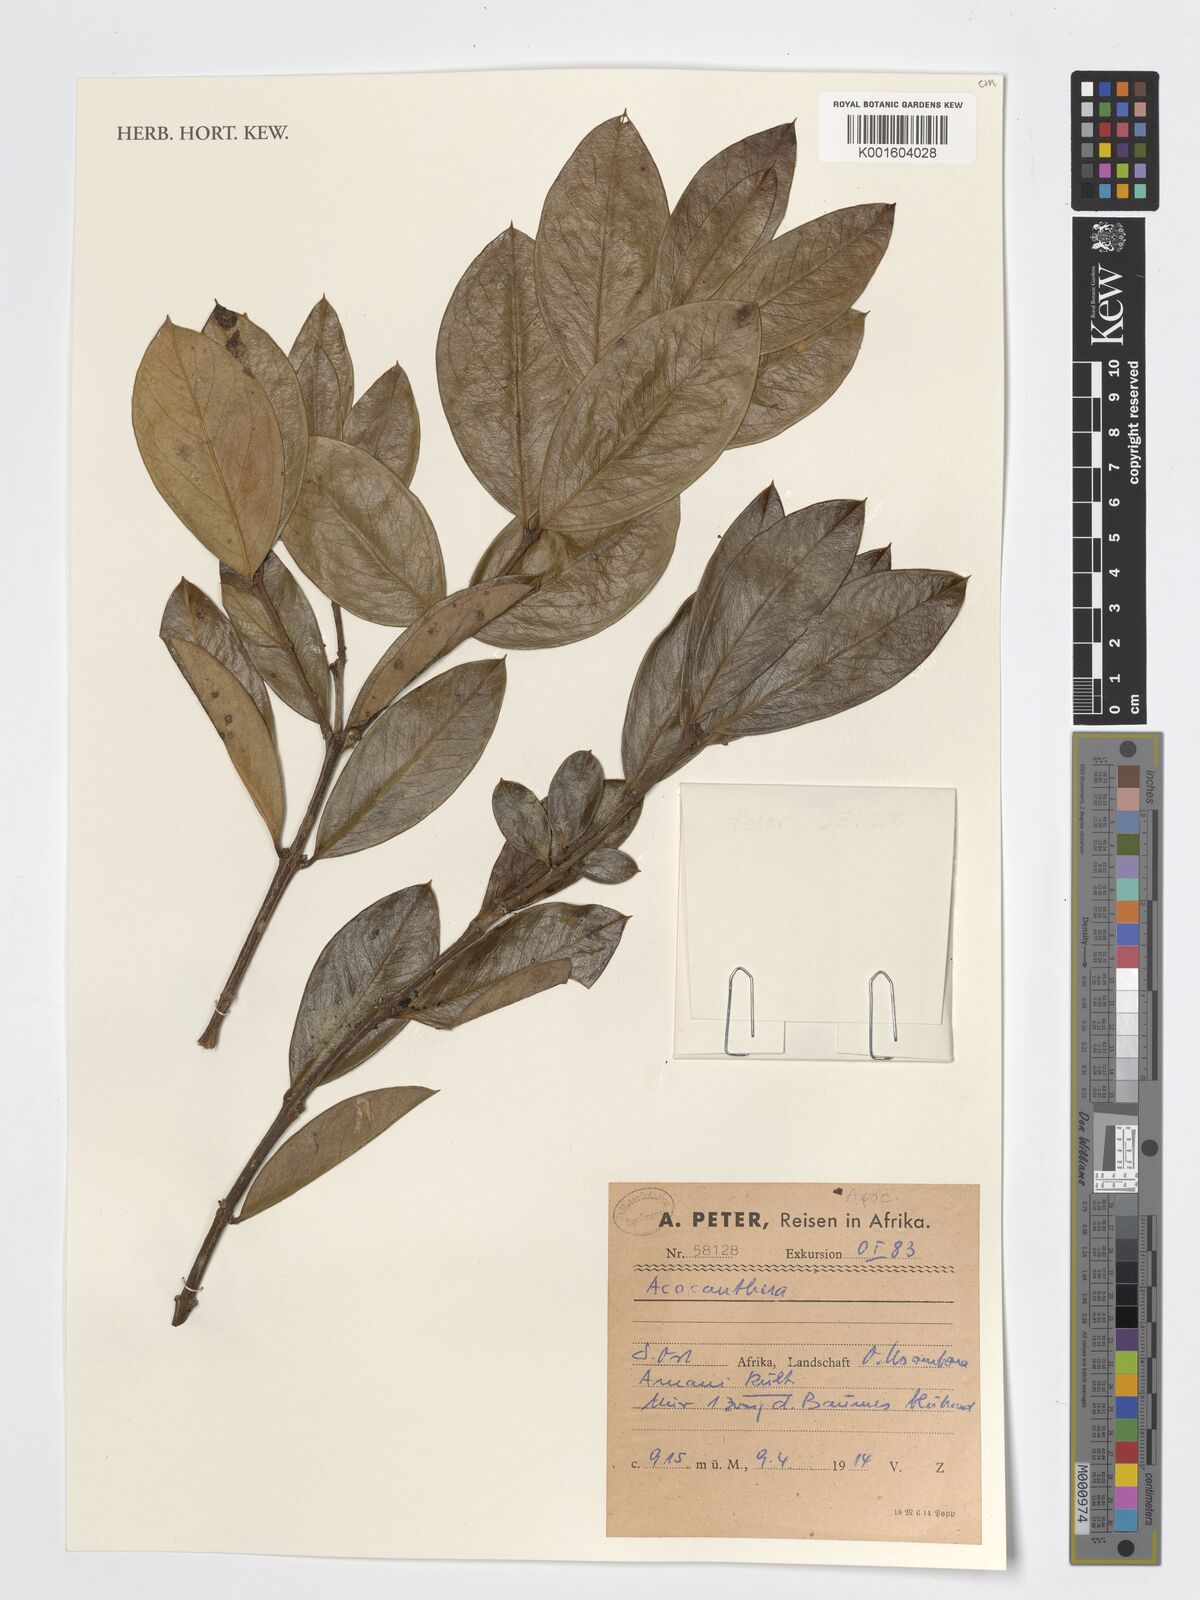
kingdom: Plantae
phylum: Tracheophyta
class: Magnoliopsida
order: Gentianales
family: Apocynaceae
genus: Acokanthera
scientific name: Acokanthera
